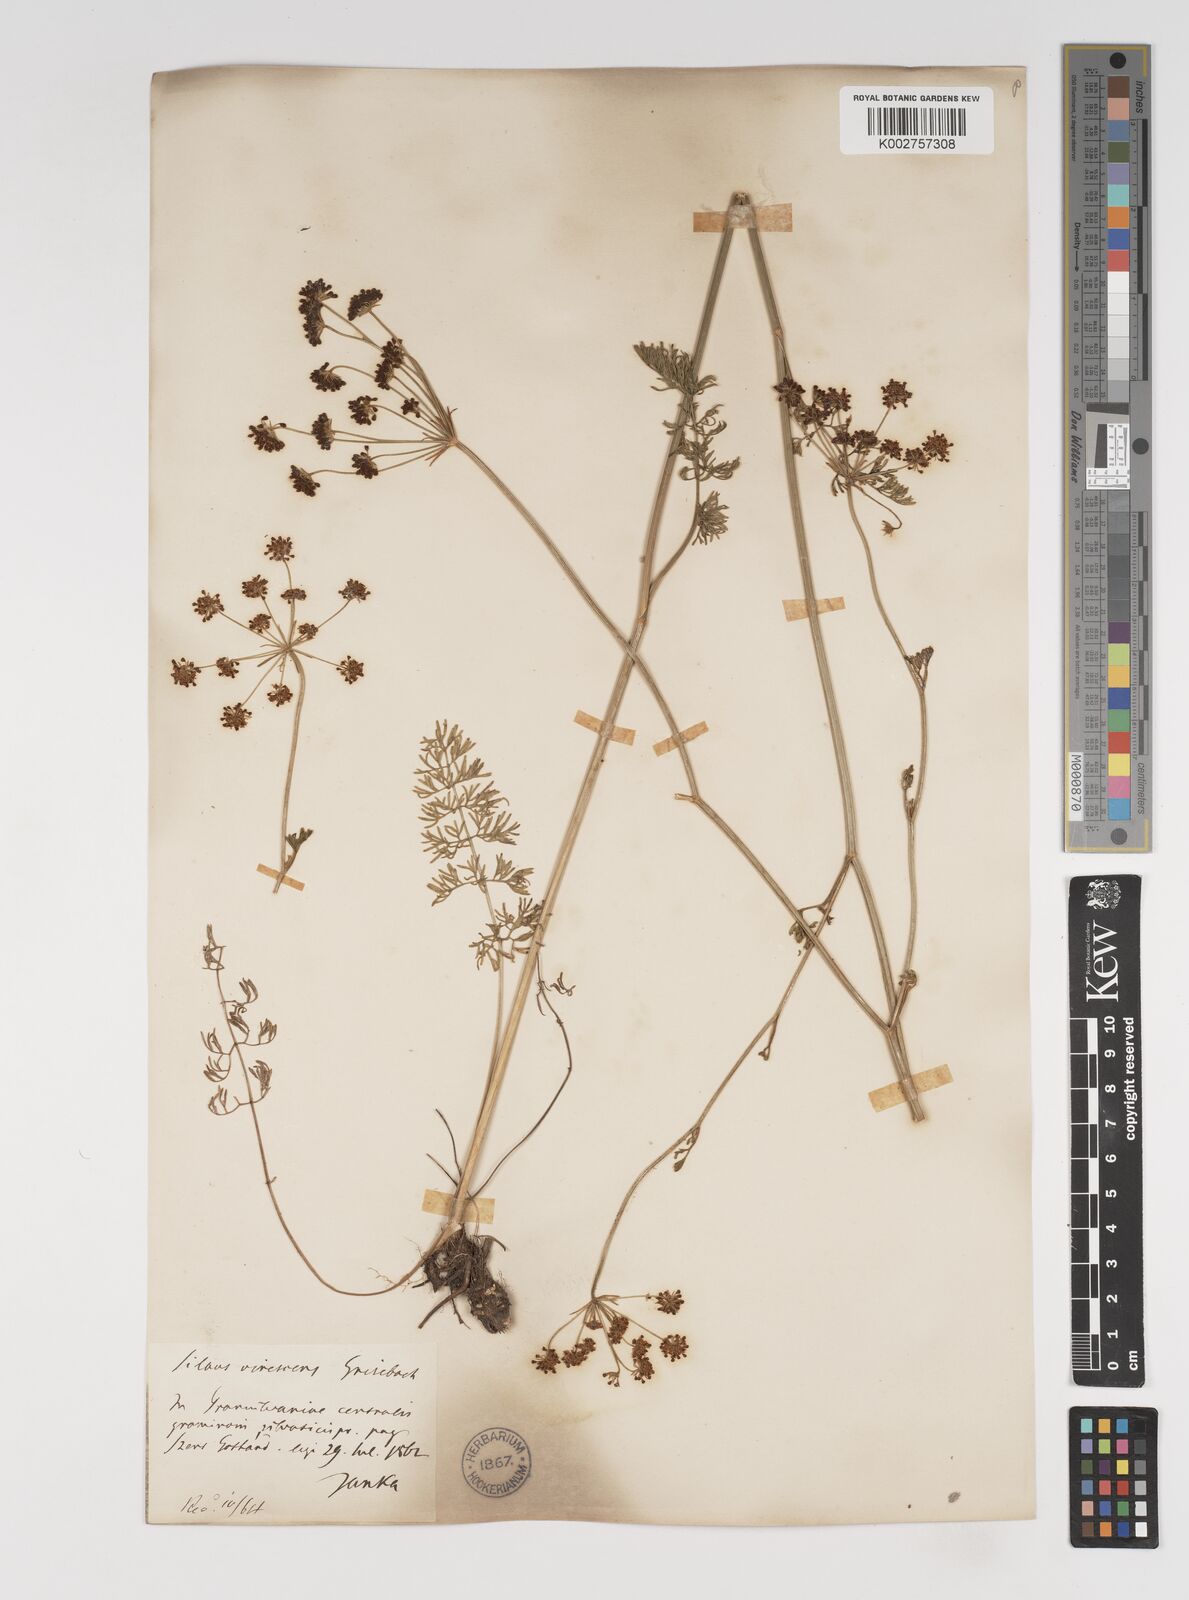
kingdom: Plantae
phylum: Tracheophyta
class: Magnoliopsida
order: Apiales
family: Apiaceae
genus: Gasparinia
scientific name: Gasparinia peucedanoides
